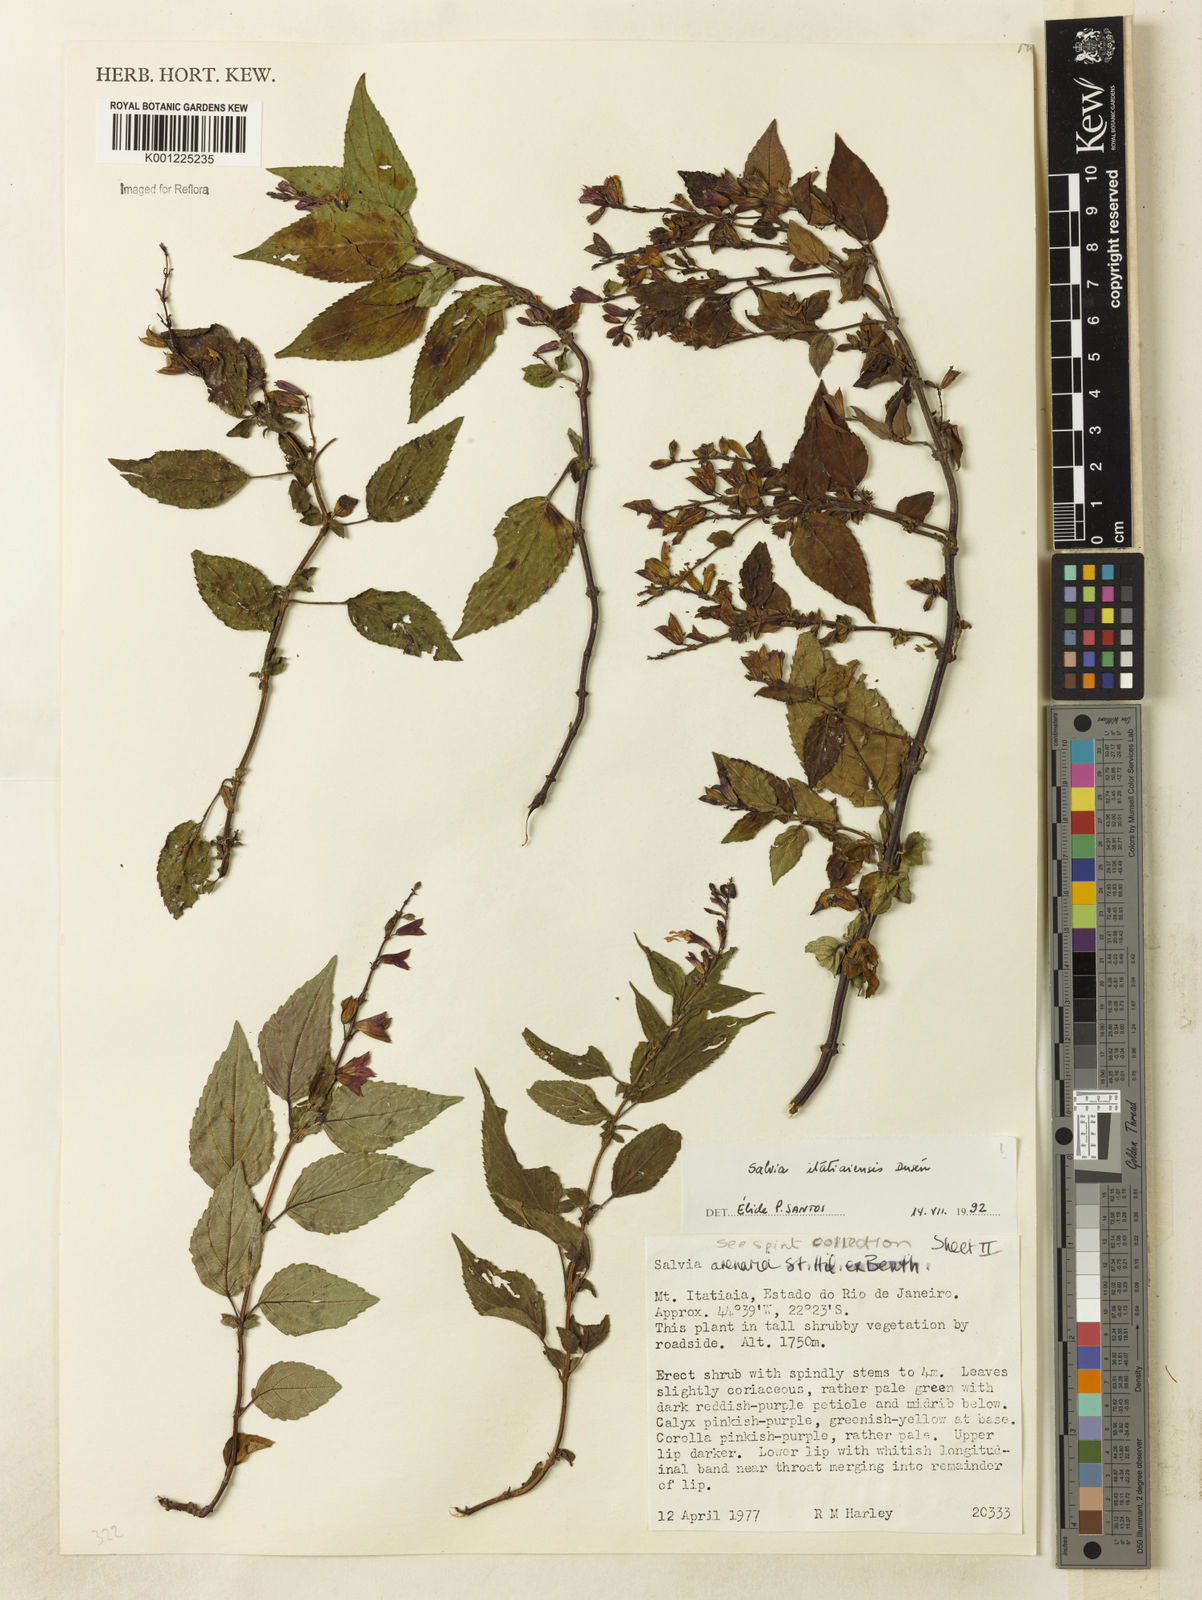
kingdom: Plantae
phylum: Tracheophyta
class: Magnoliopsida
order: Lamiales
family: Lamiaceae
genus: Salvia
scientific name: Salvia
